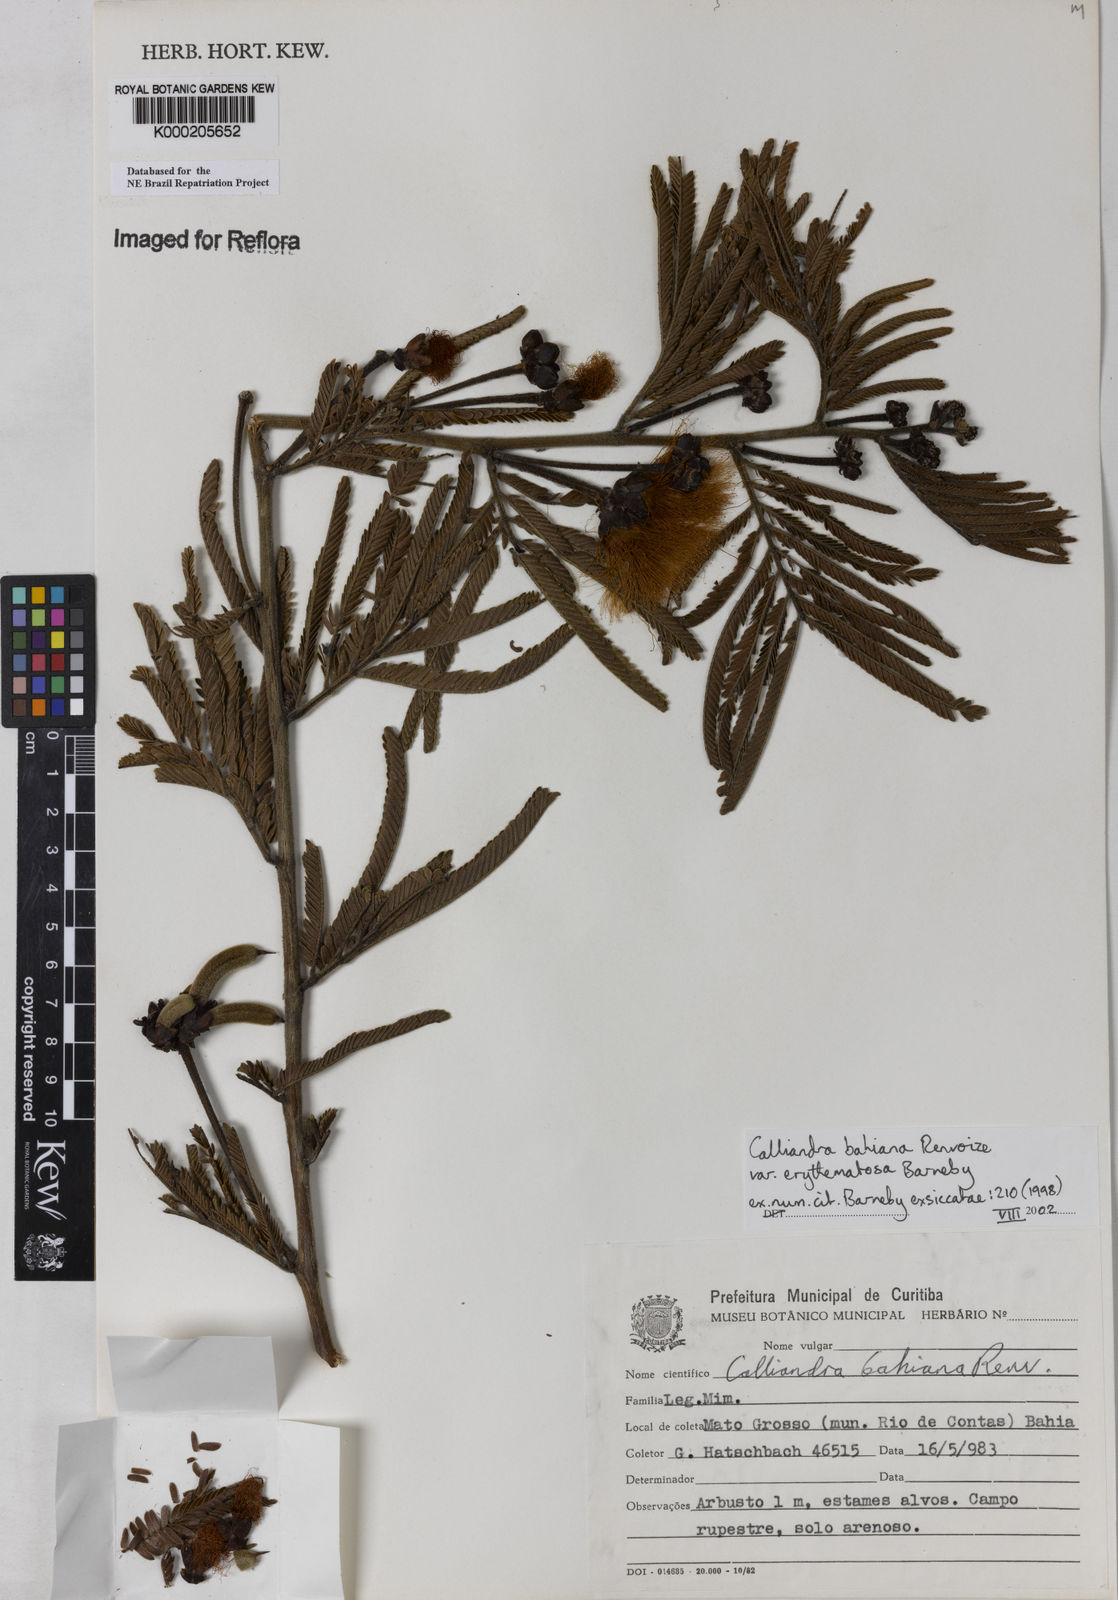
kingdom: Plantae
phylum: Tracheophyta
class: Magnoliopsida
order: Fabales
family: Fabaceae
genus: Calliandra
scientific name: Calliandra bahiana
